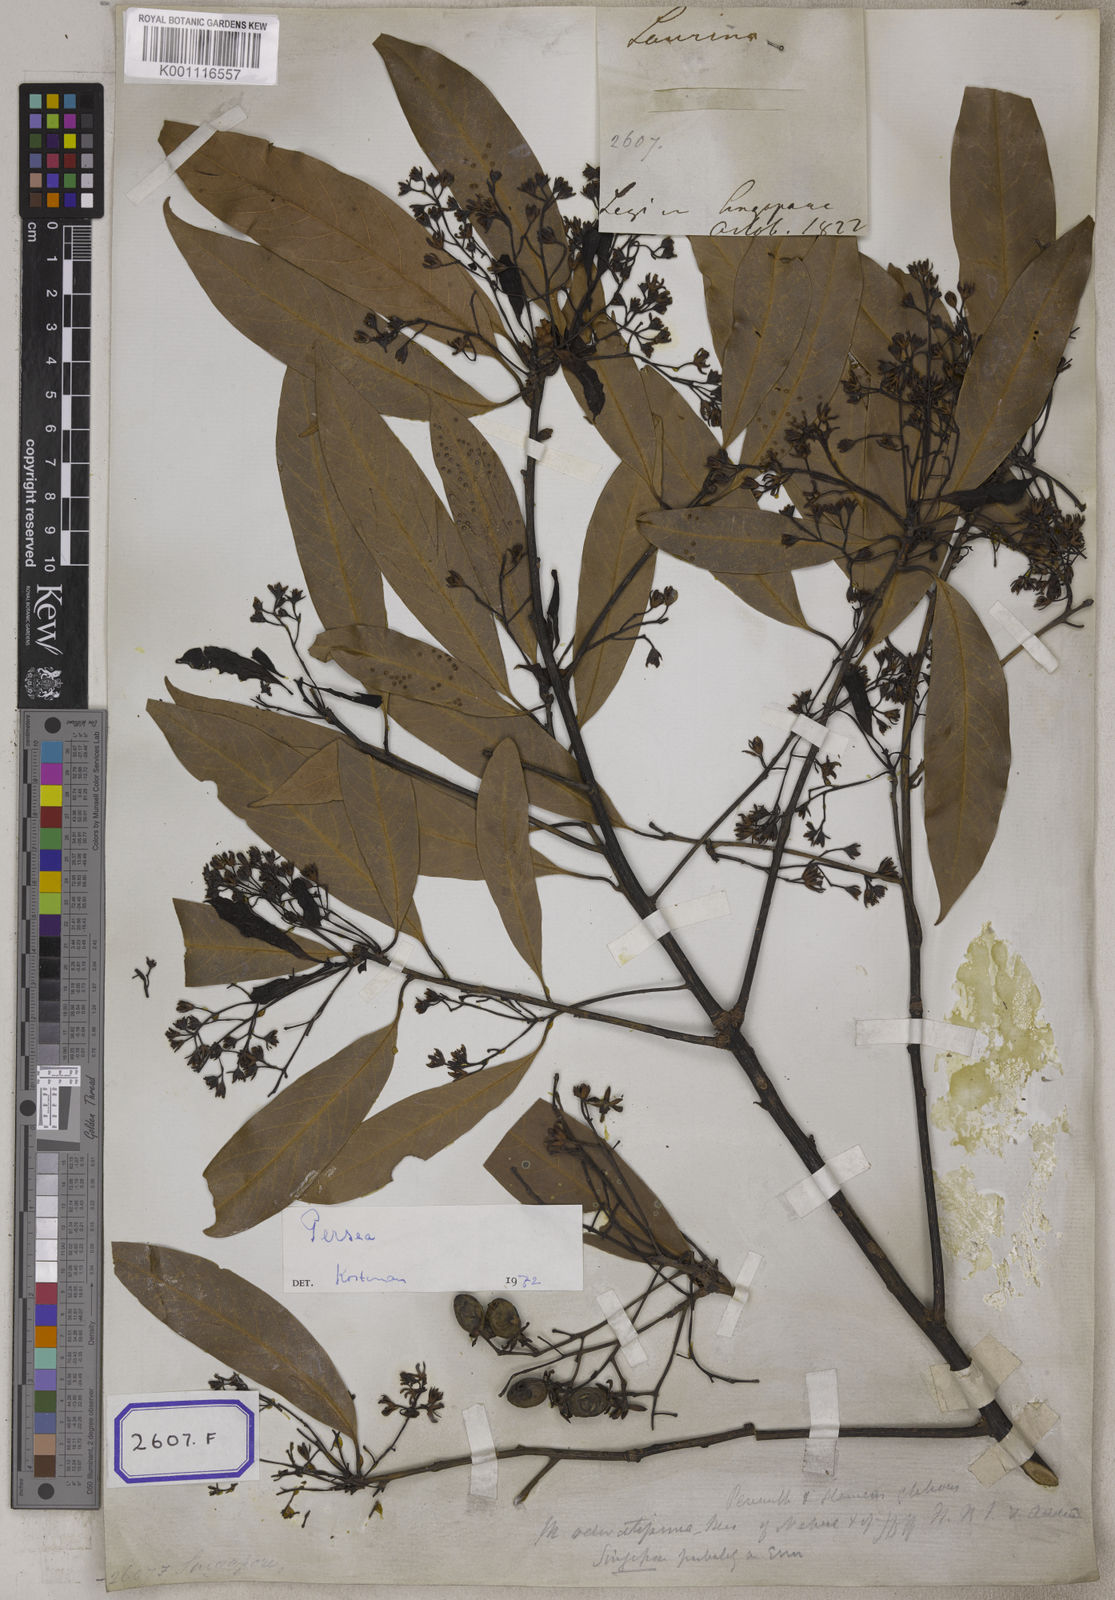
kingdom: Plantae
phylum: Tracheophyta
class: Magnoliopsida
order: Laurales
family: Lauraceae
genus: Machilus
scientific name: Machilus odoratissimus
